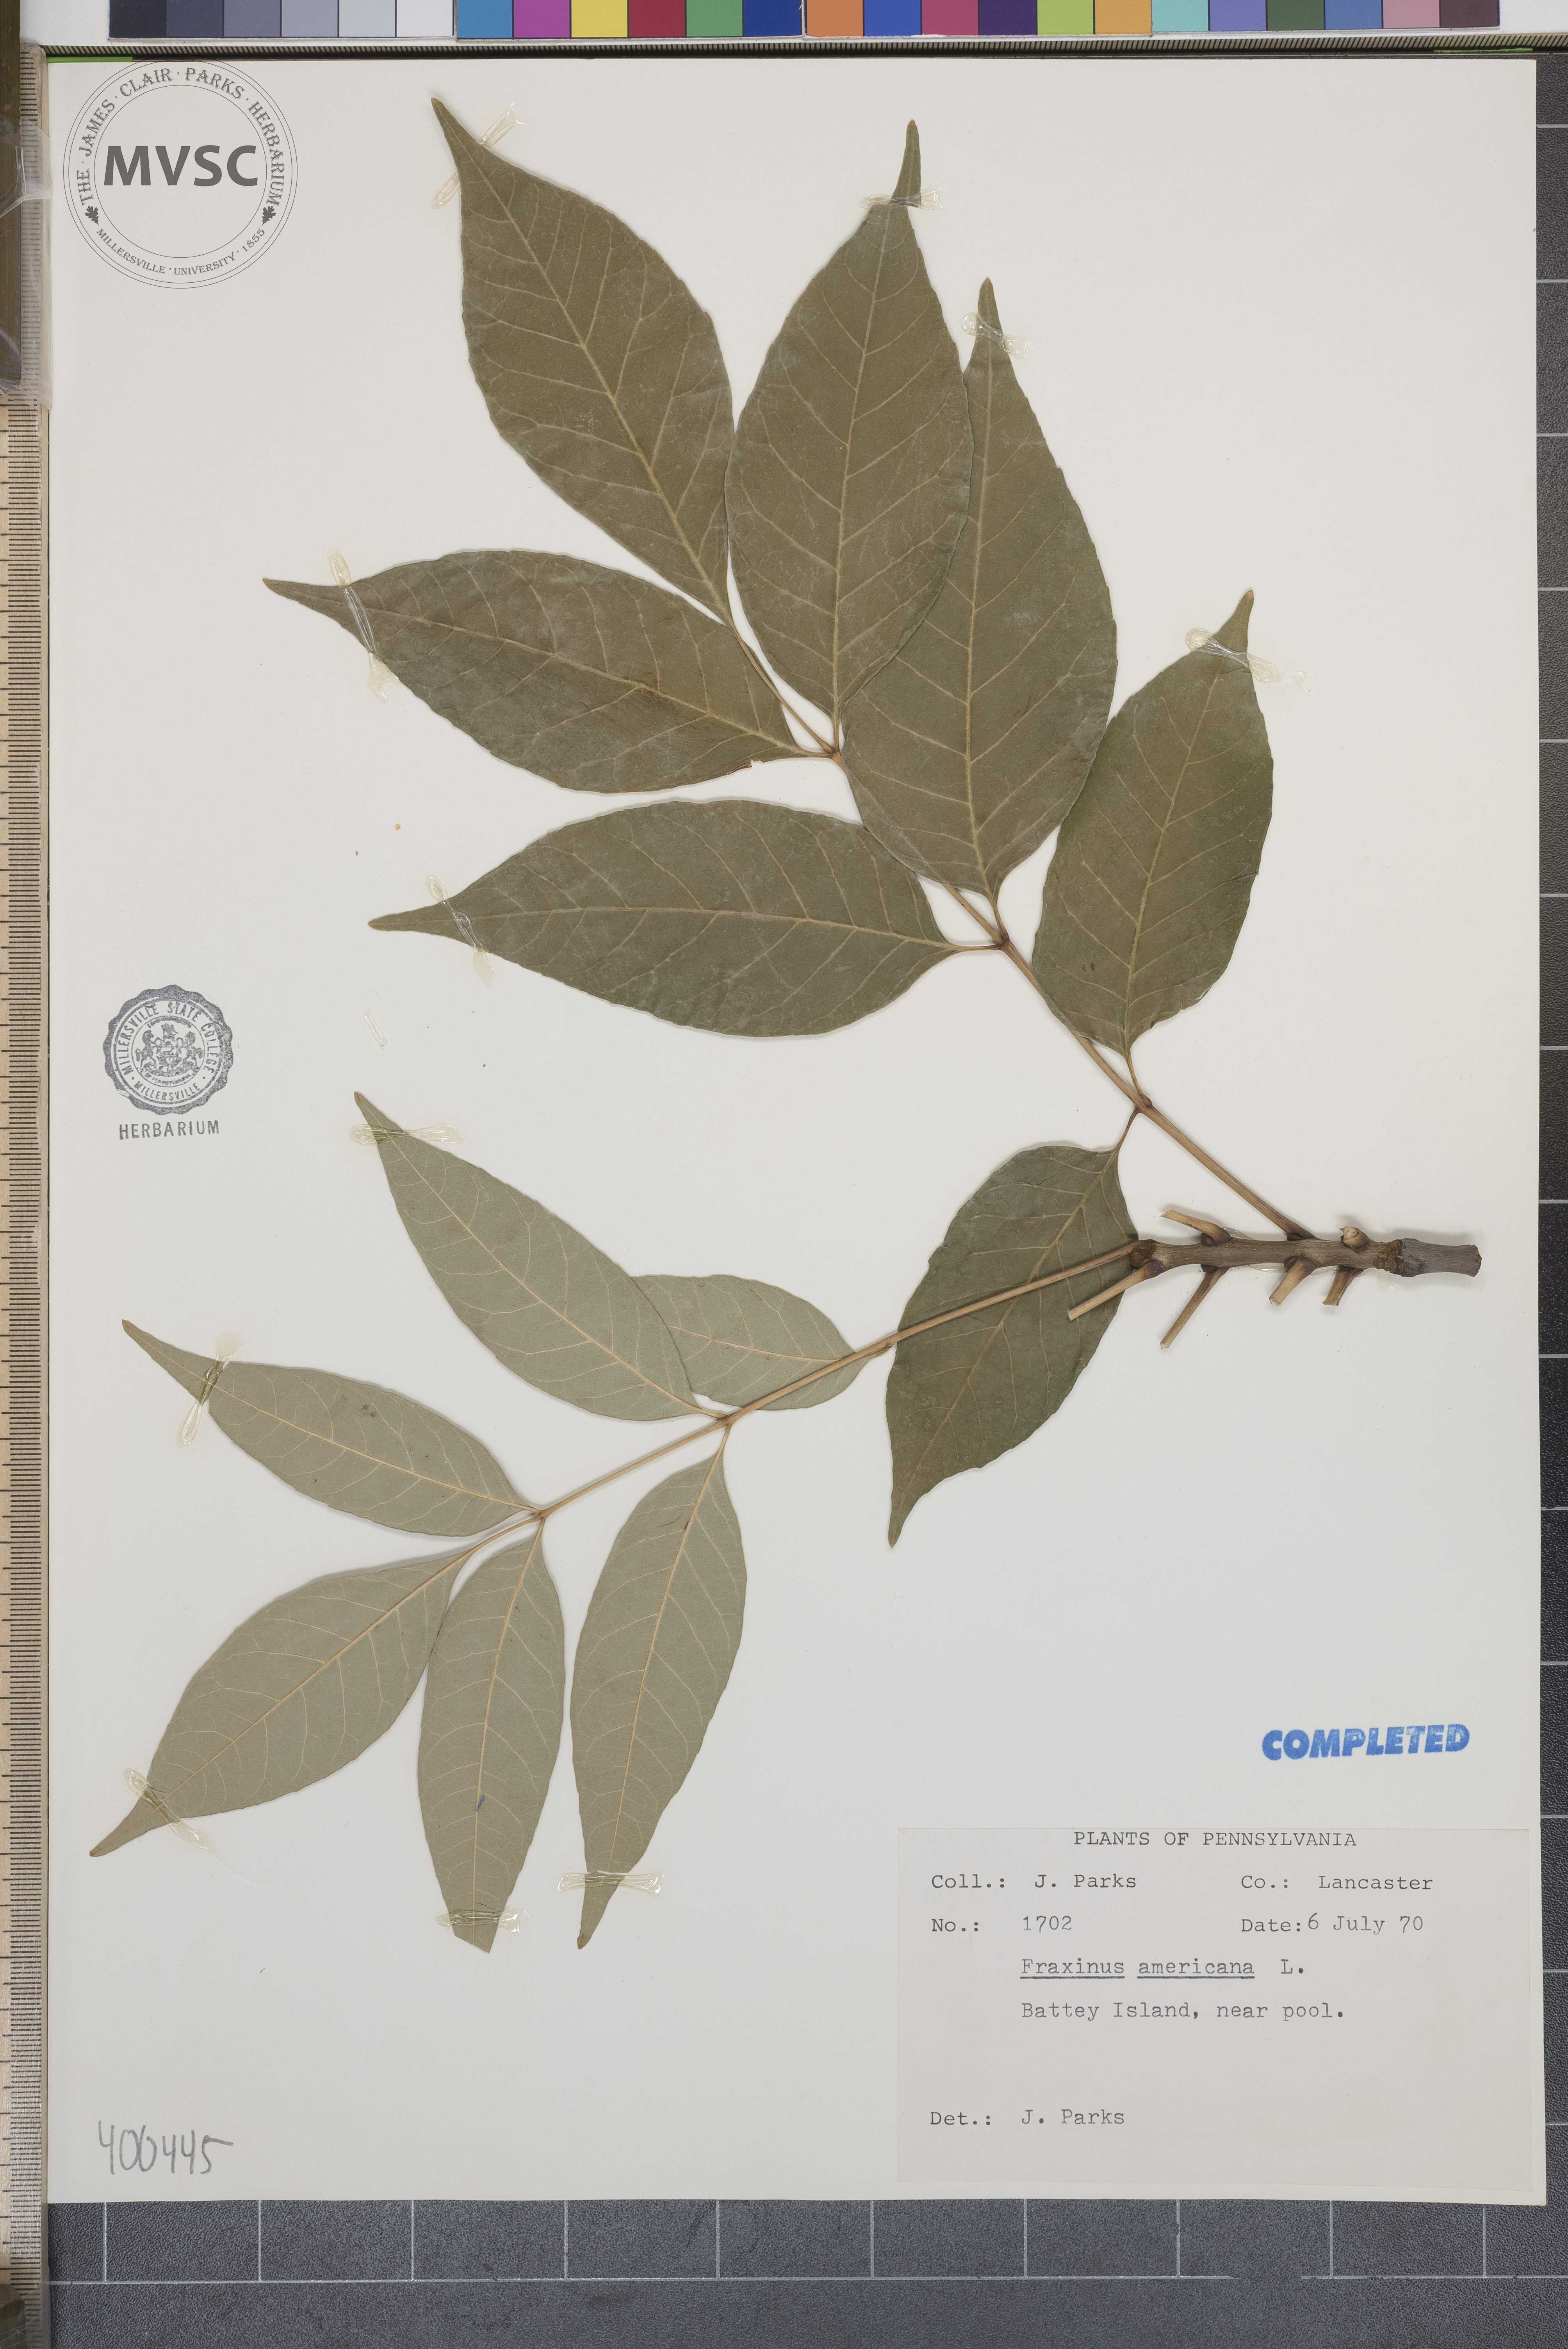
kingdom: Plantae
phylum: Tracheophyta
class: Magnoliopsida
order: Lamiales
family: Oleaceae
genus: Fraxinus
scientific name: Fraxinus americana
